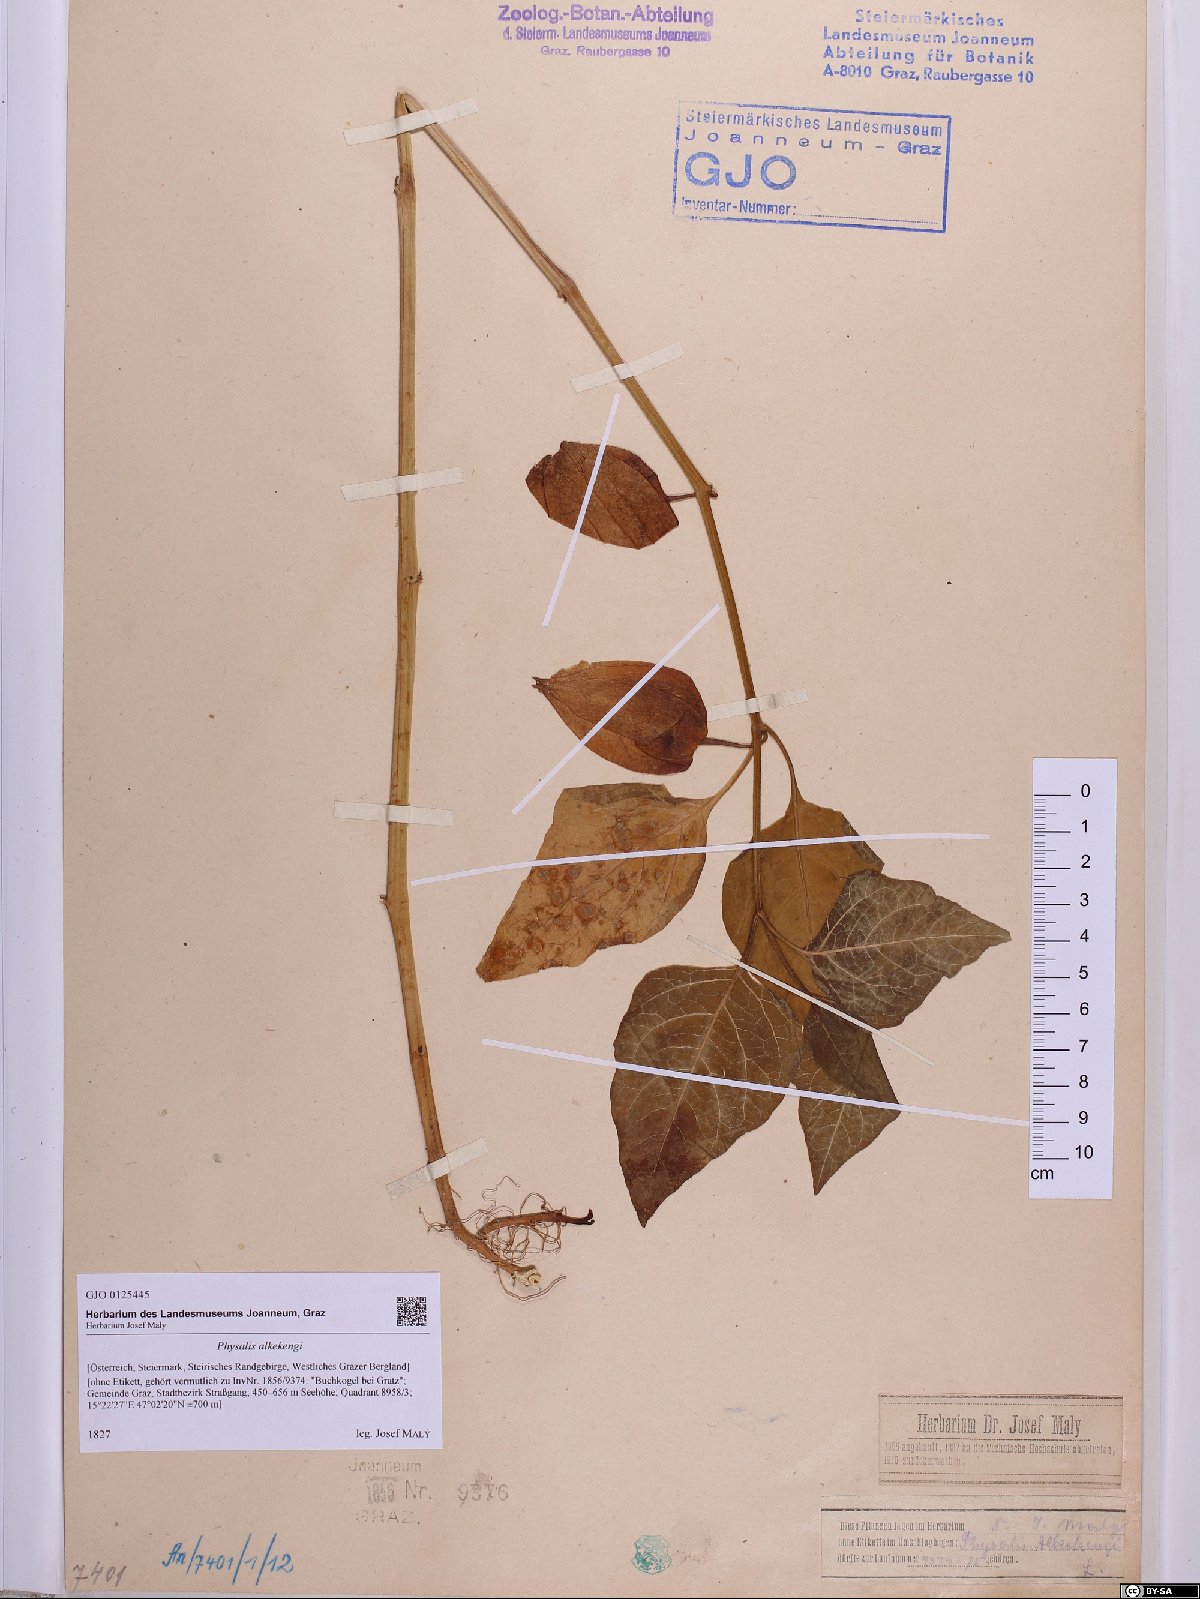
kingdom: Plantae
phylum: Tracheophyta
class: Magnoliopsida
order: Solanales
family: Solanaceae
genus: Alkekengi
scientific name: Alkekengi officinarum
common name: Japanese-lantern
